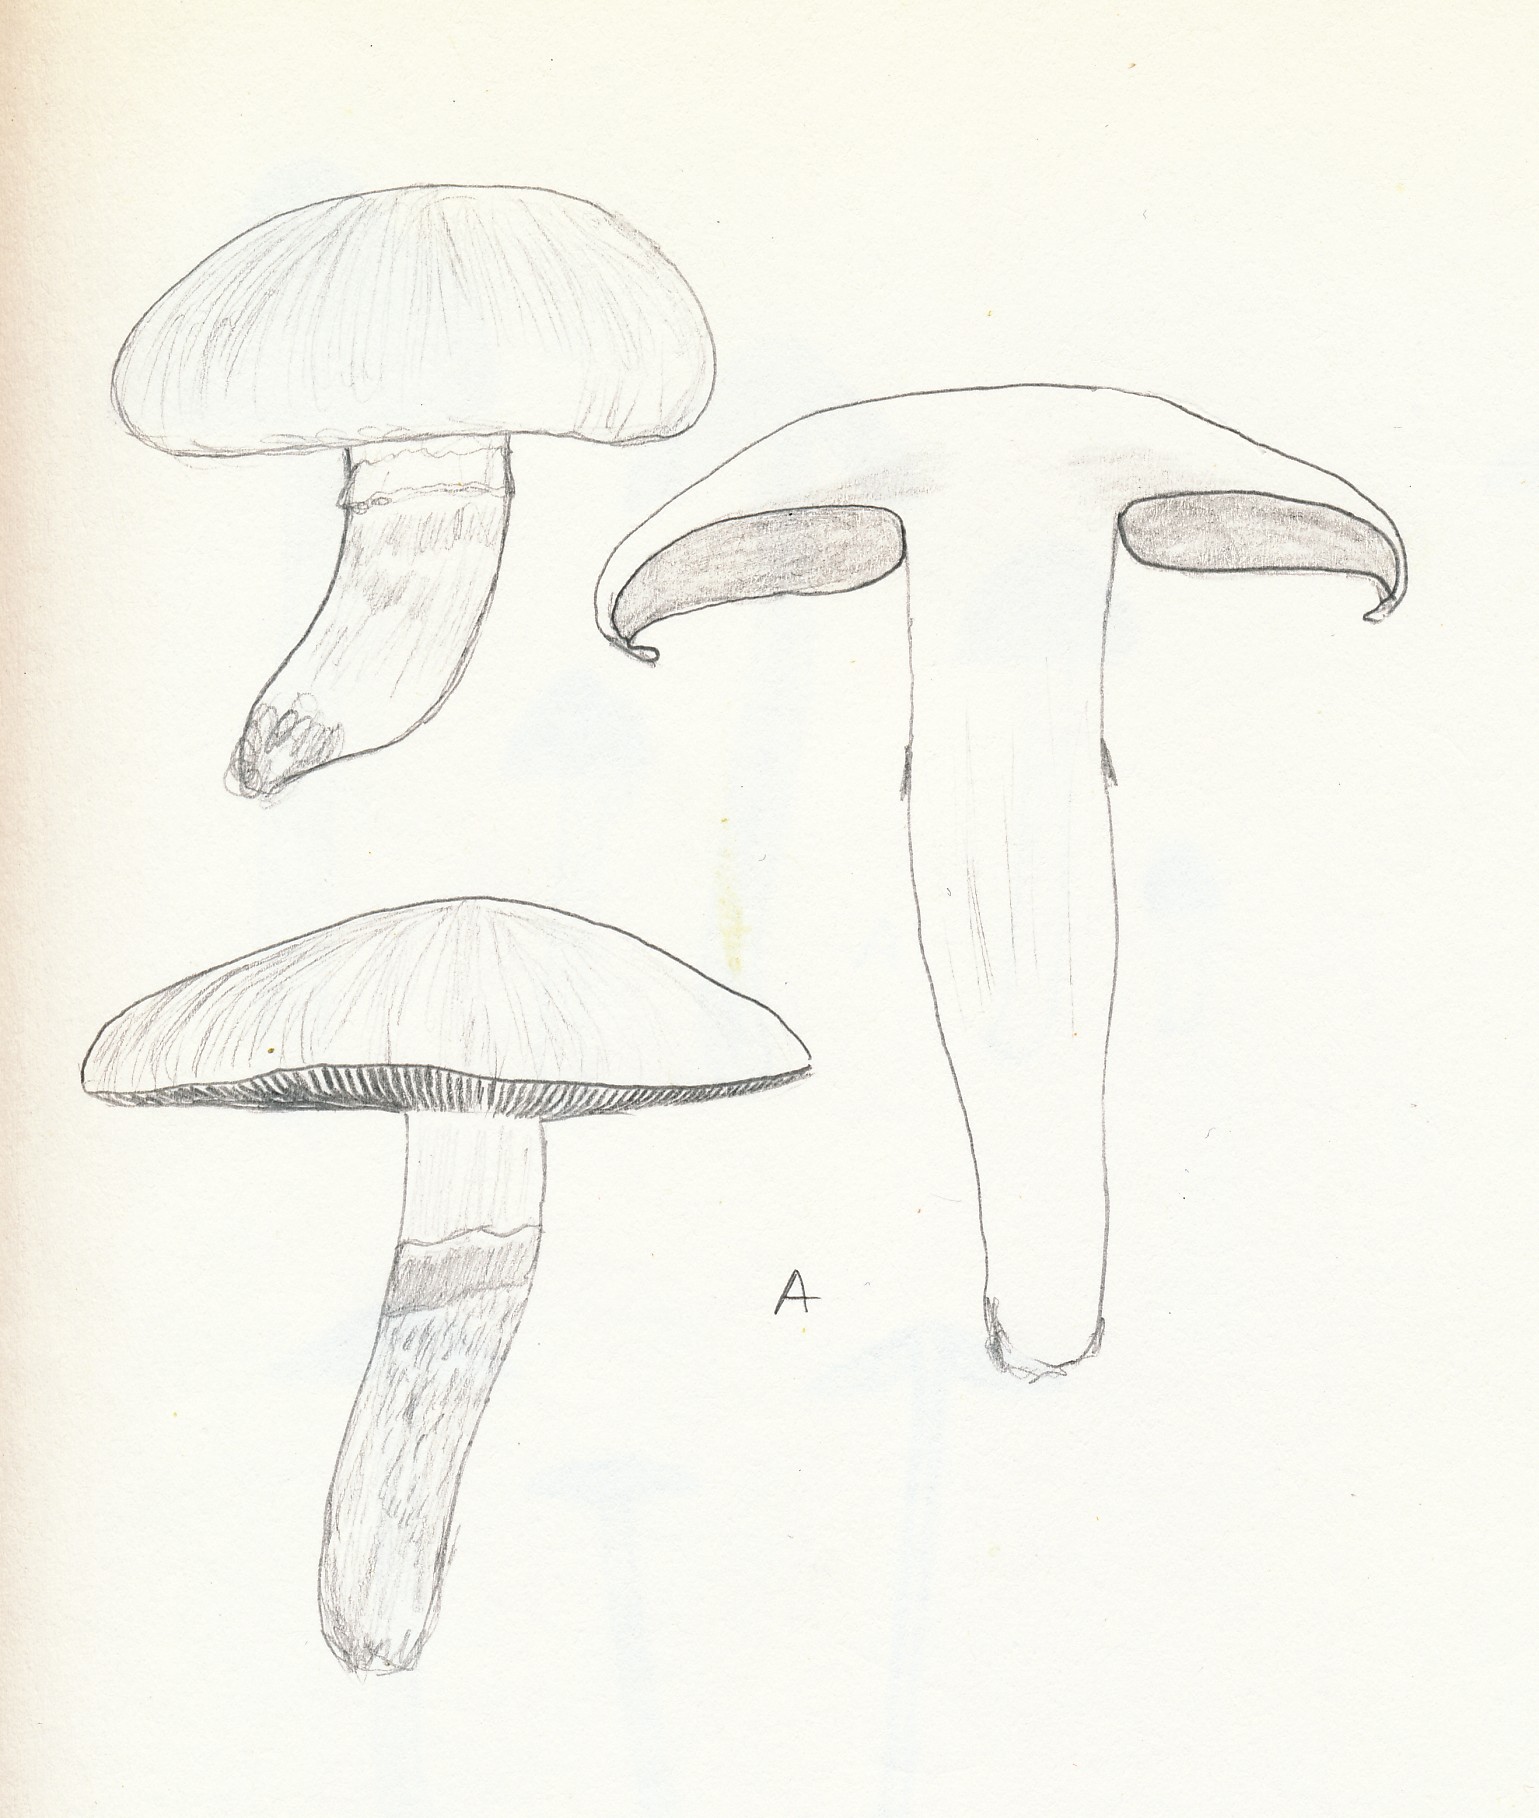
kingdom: Fungi
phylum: Basidiomycota
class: Agaricomycetes
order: Agaricales
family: Agaricaceae
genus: Agaricus
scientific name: Agaricus campestris
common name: mark-champignon
